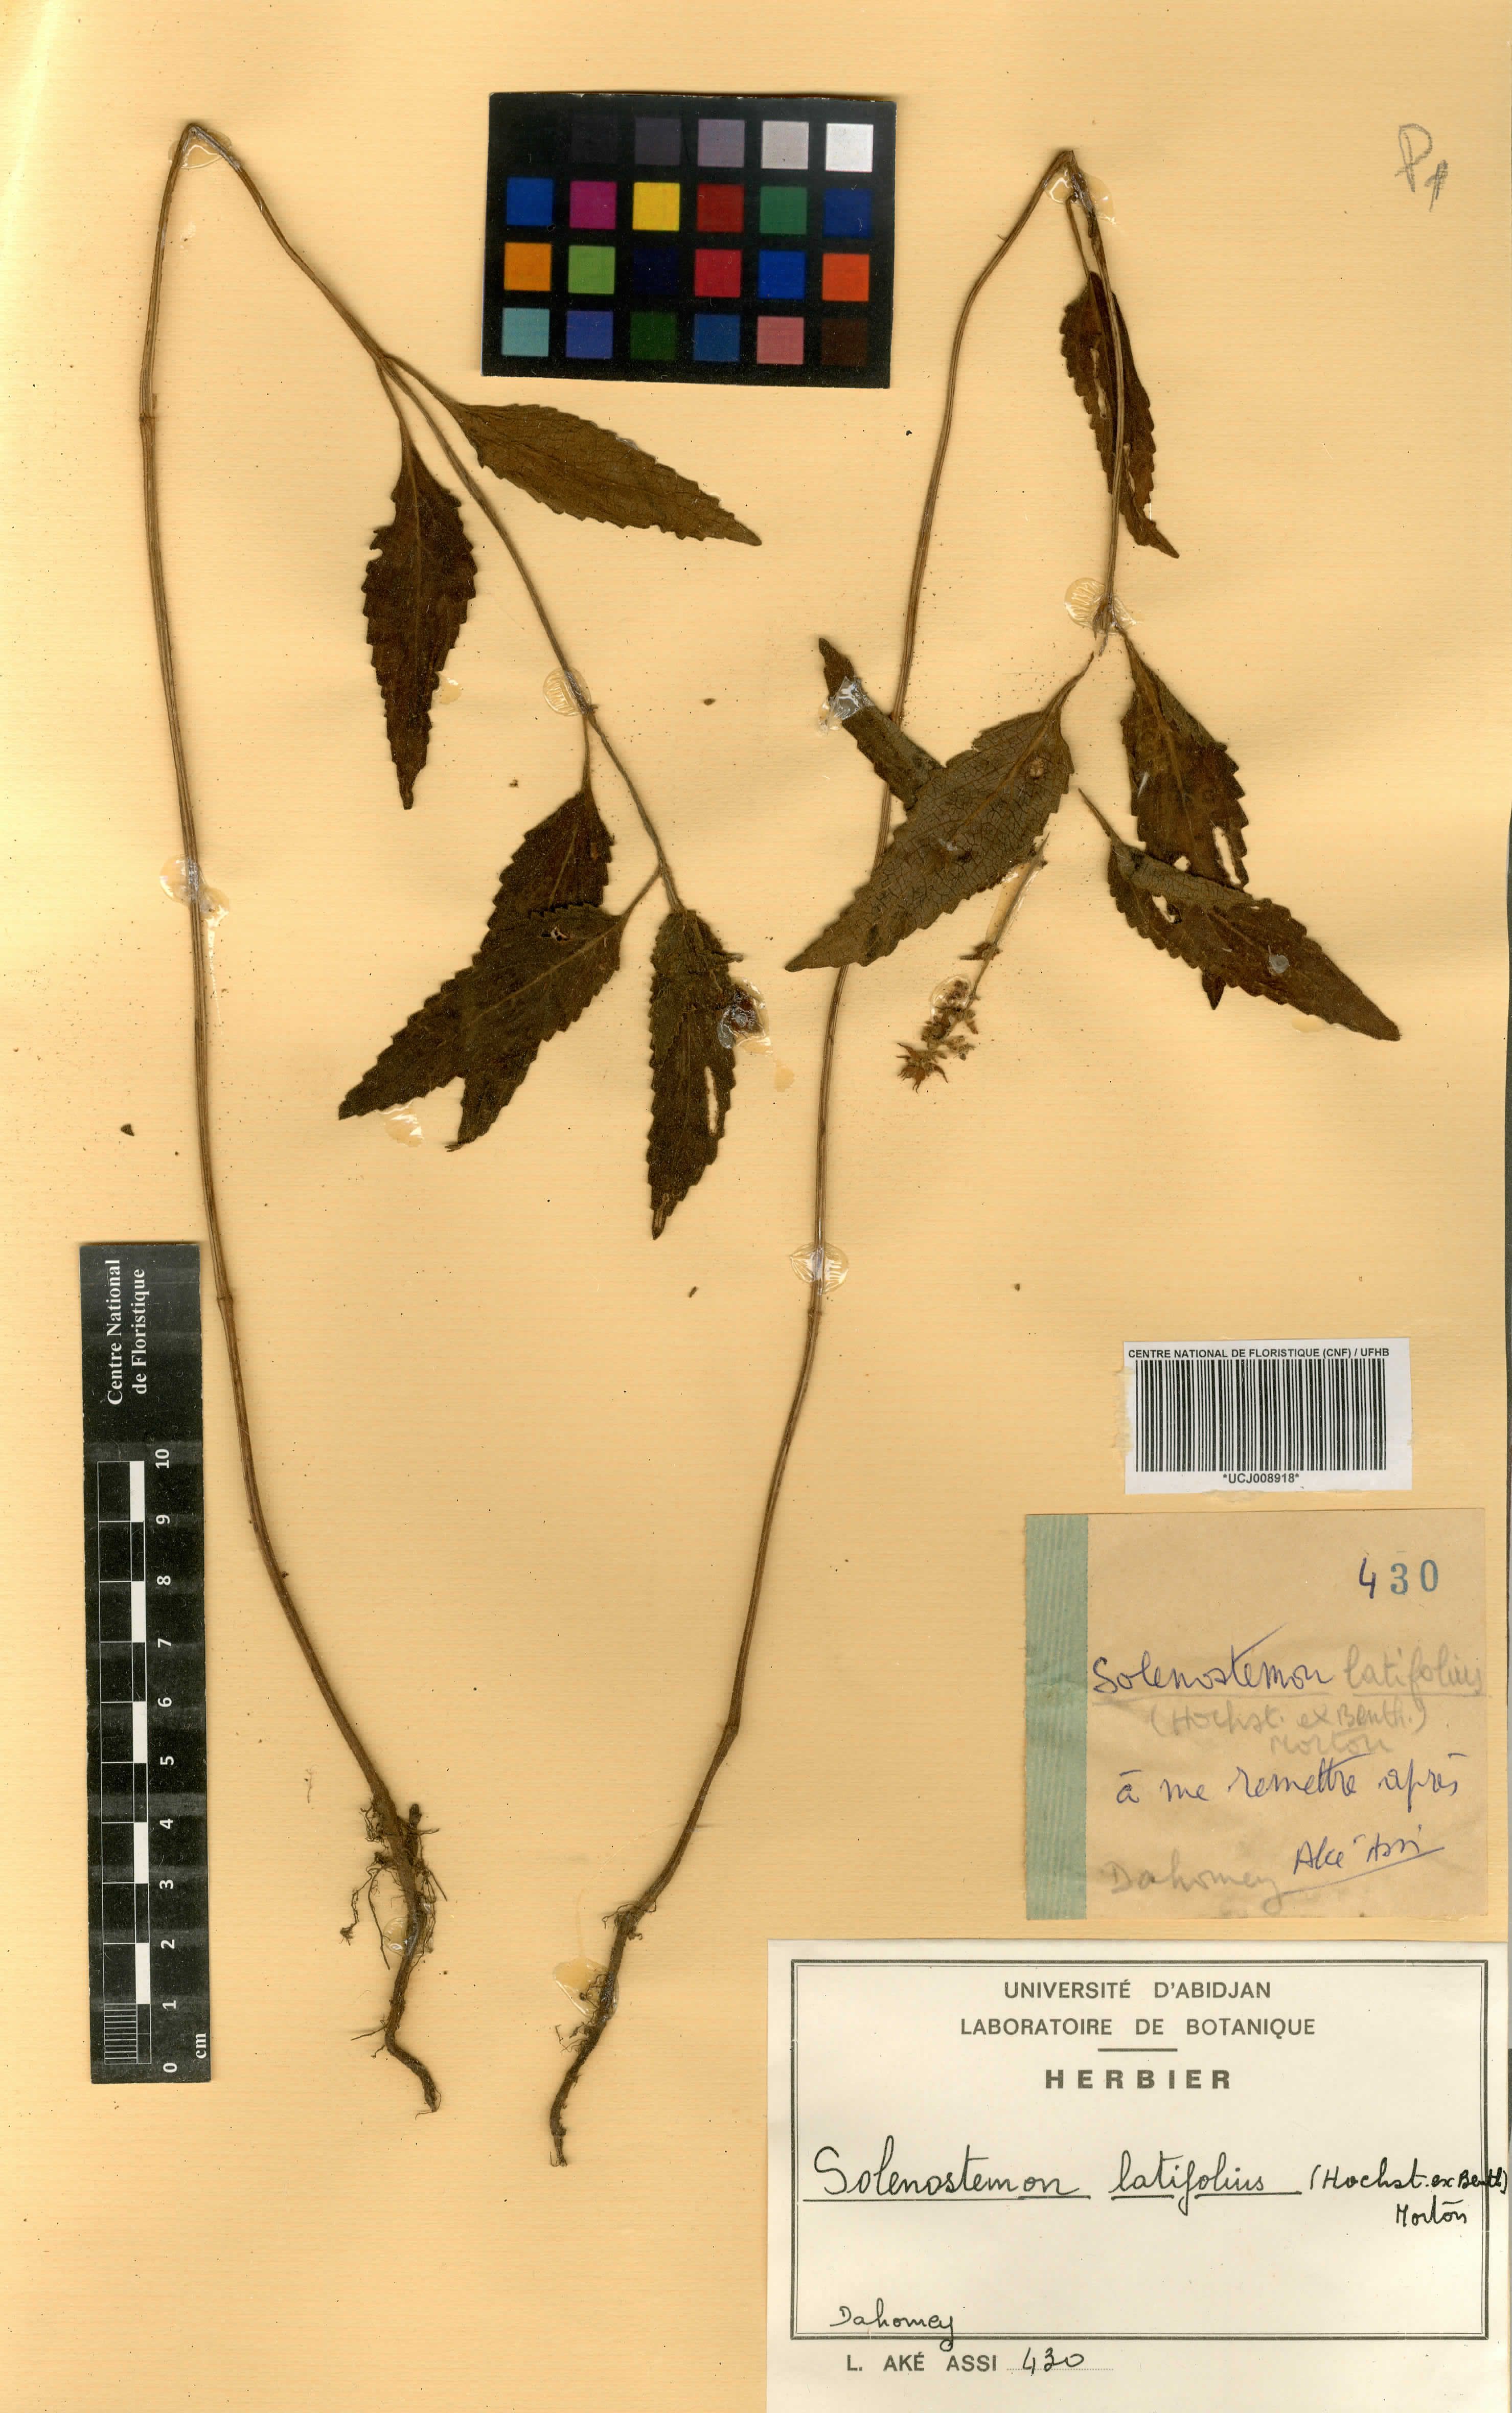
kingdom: Plantae
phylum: Tracheophyta
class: Magnoliopsida
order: Lamiales
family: Lamiaceae
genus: Coleus
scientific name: Coleus bojeri
